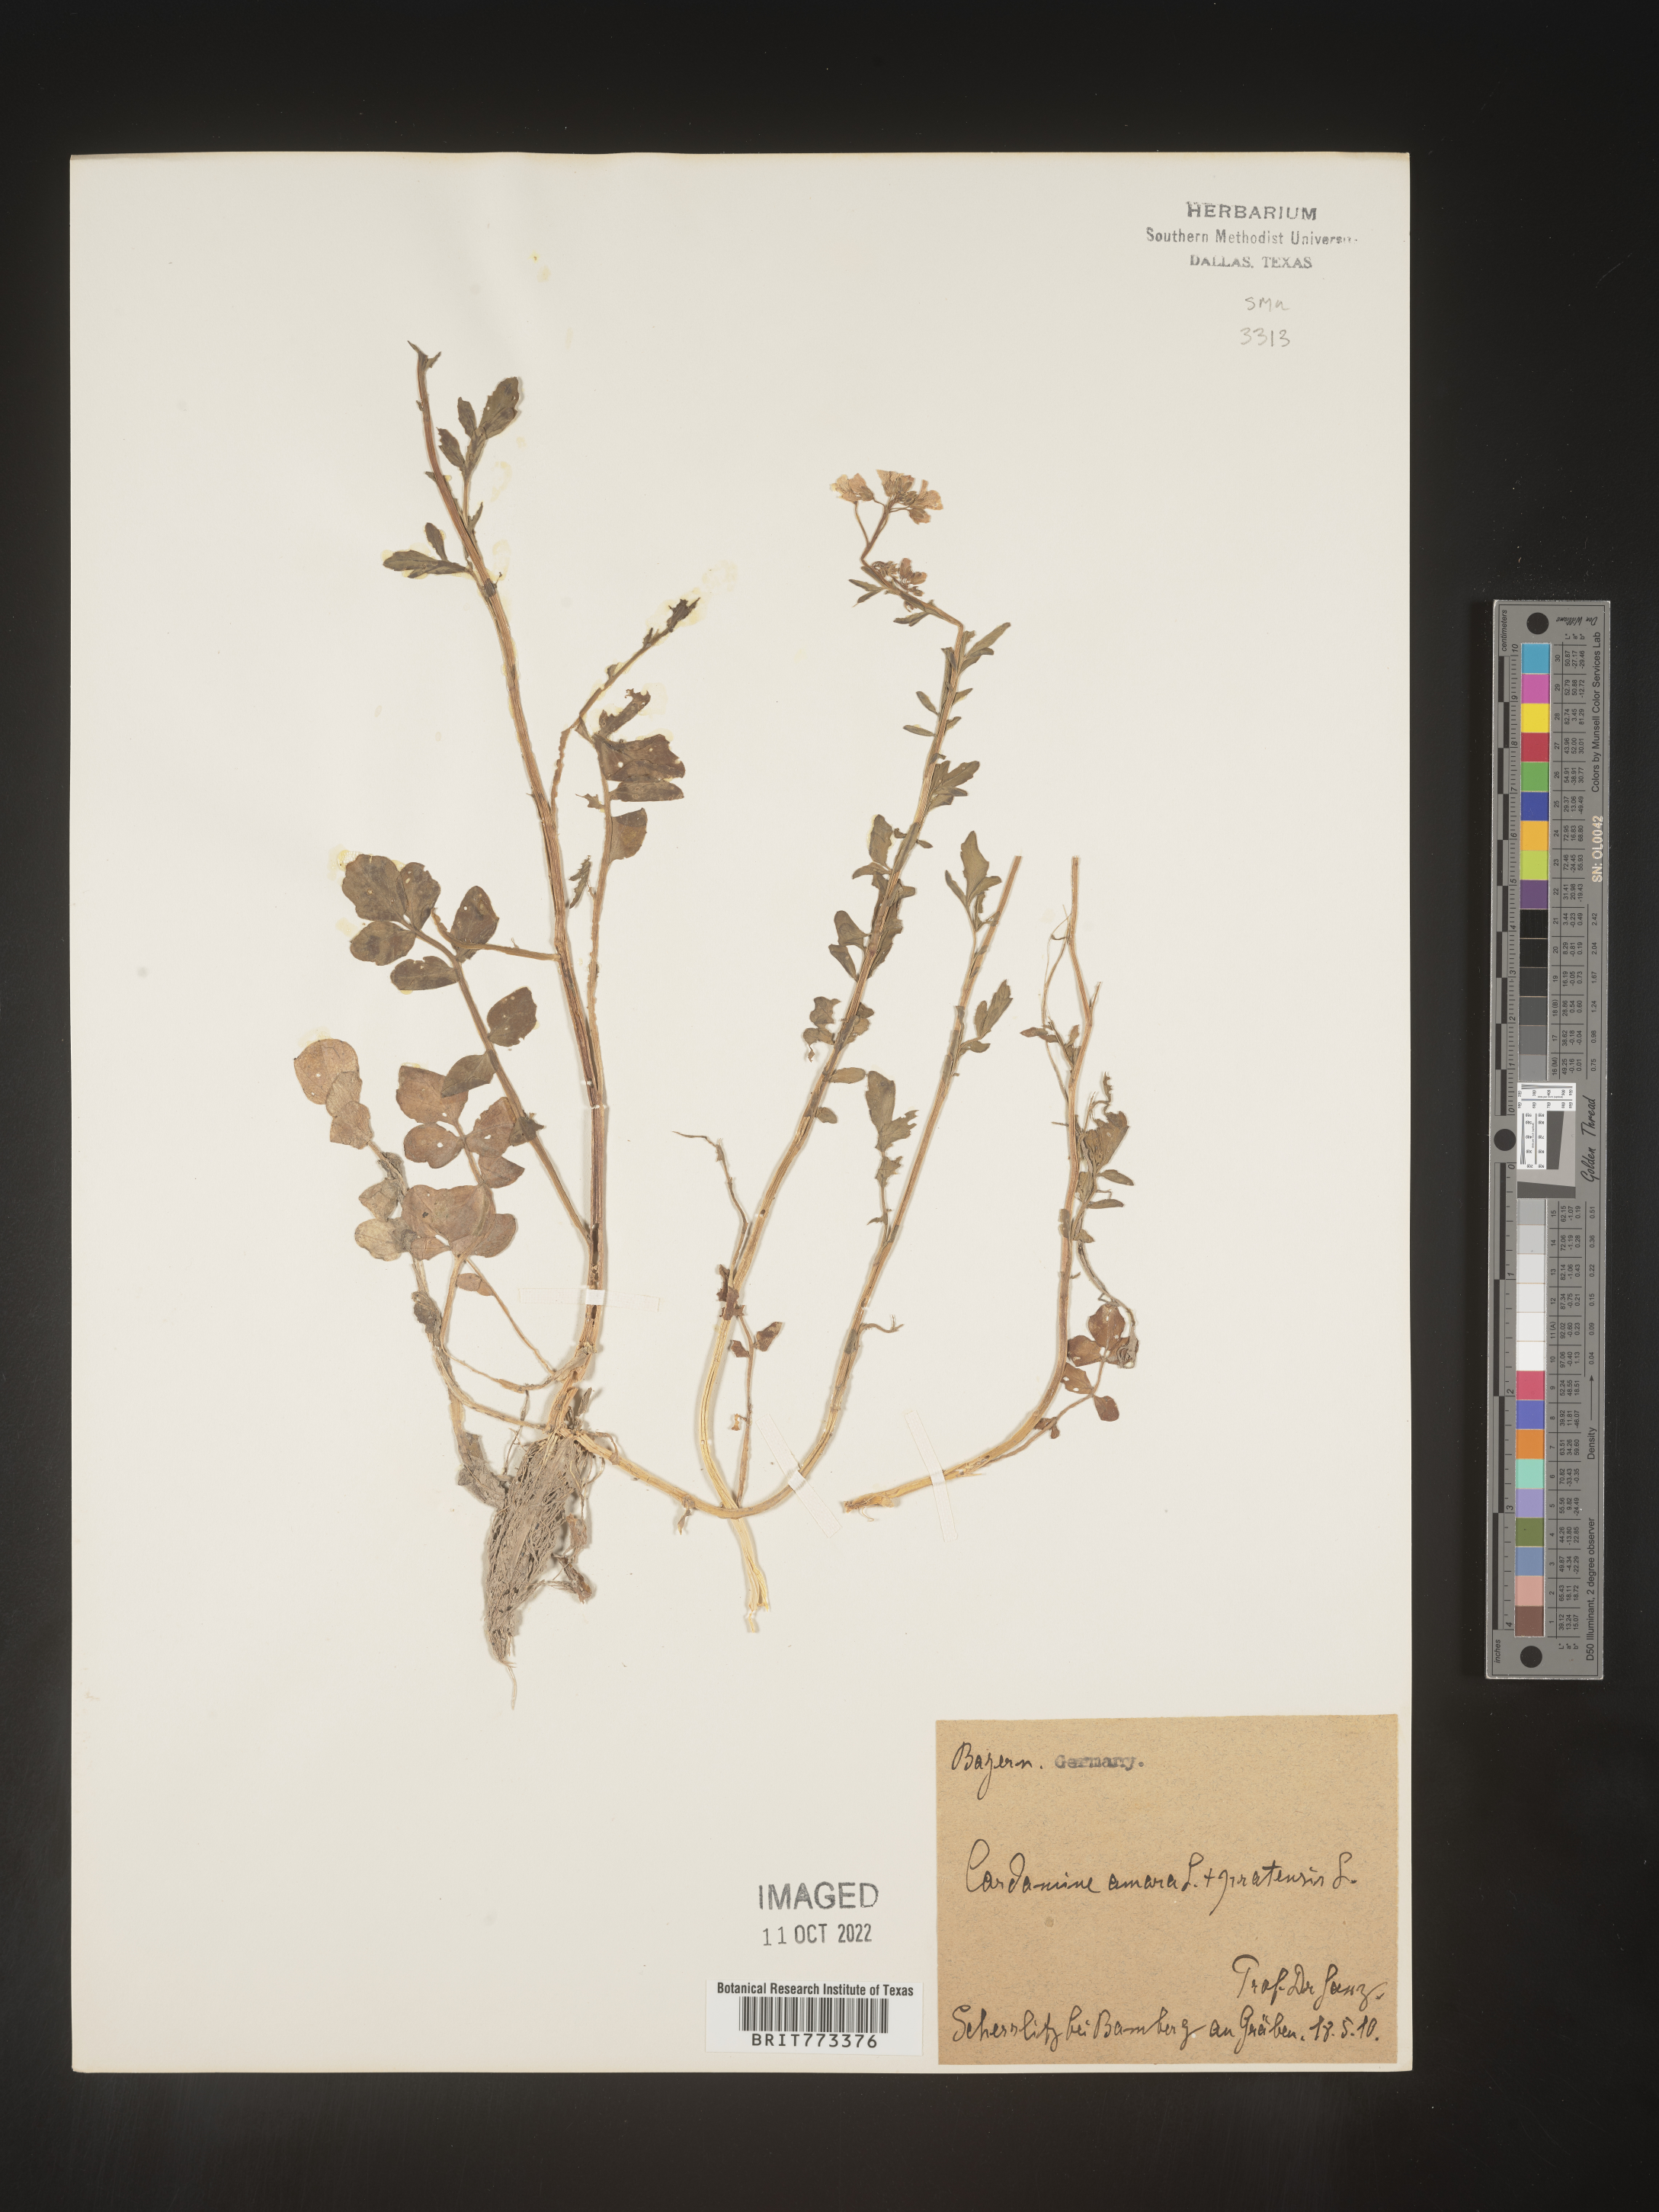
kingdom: Plantae
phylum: Tracheophyta
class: Magnoliopsida
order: Brassicales
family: Brassicaceae
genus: Cardamine
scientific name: Cardamine
